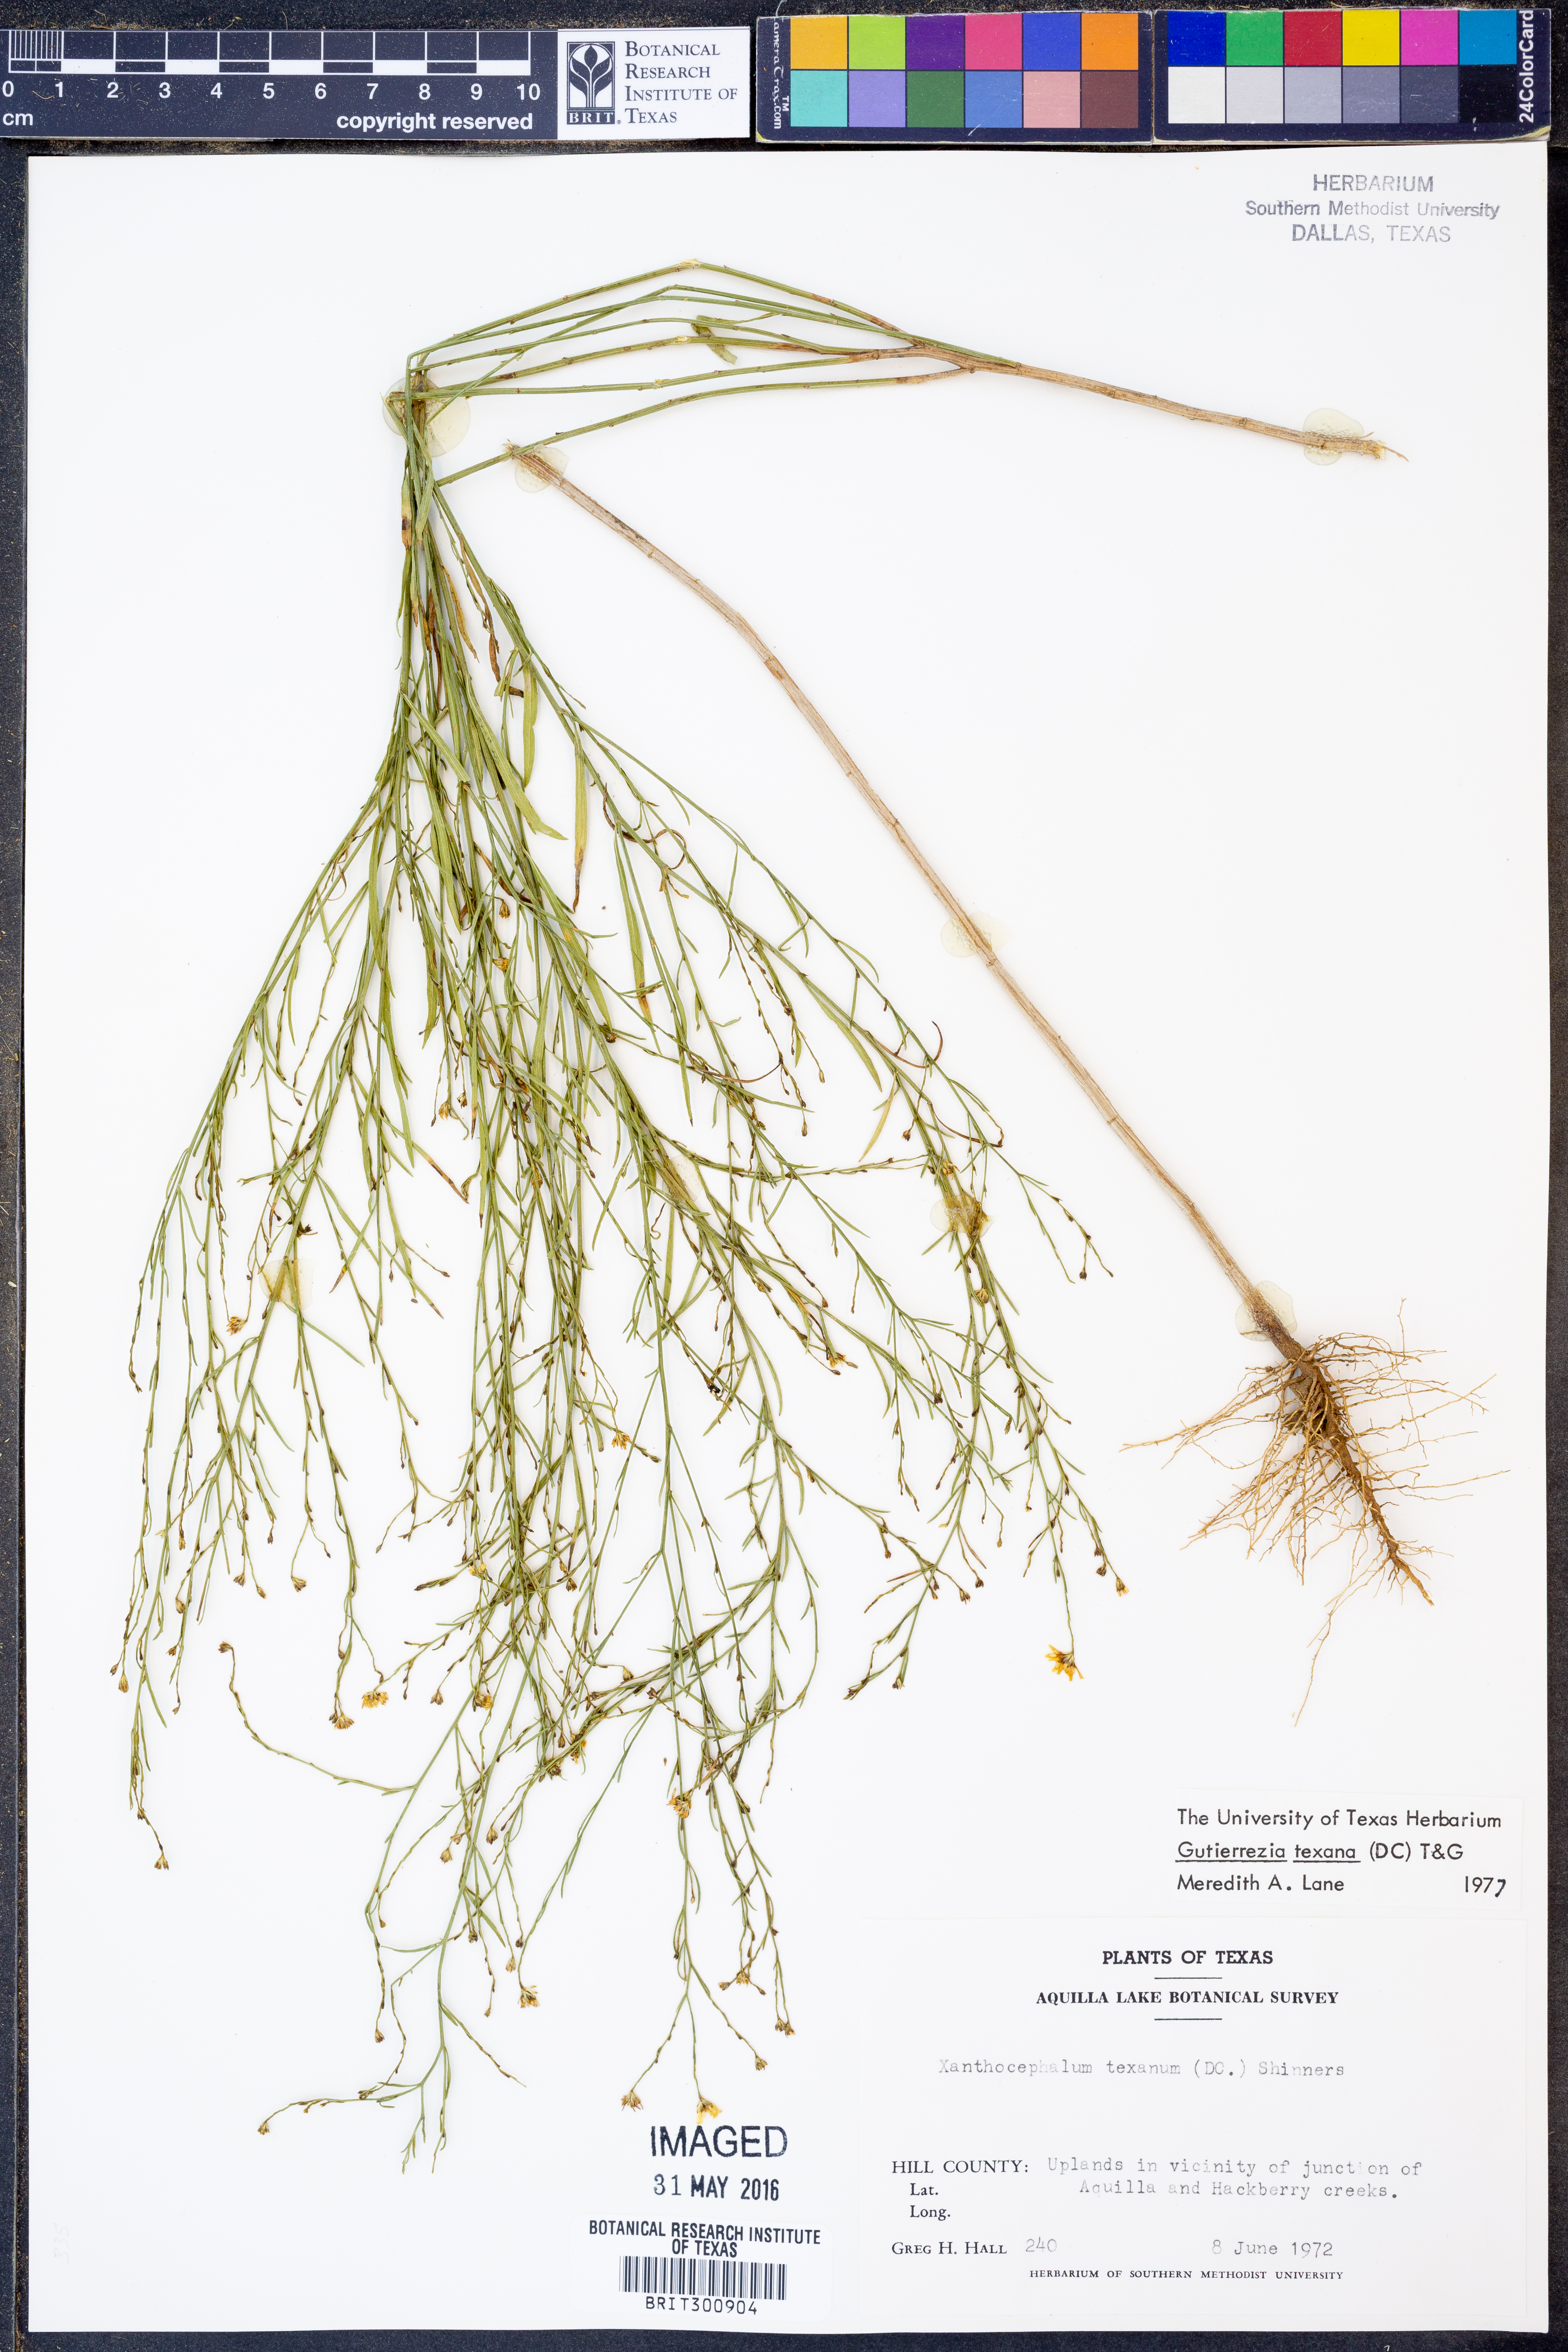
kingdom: Plantae
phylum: Tracheophyta
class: Magnoliopsida
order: Asterales
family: Asteraceae
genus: Gutierrezia
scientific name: Gutierrezia texana
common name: Texas snakeweed
